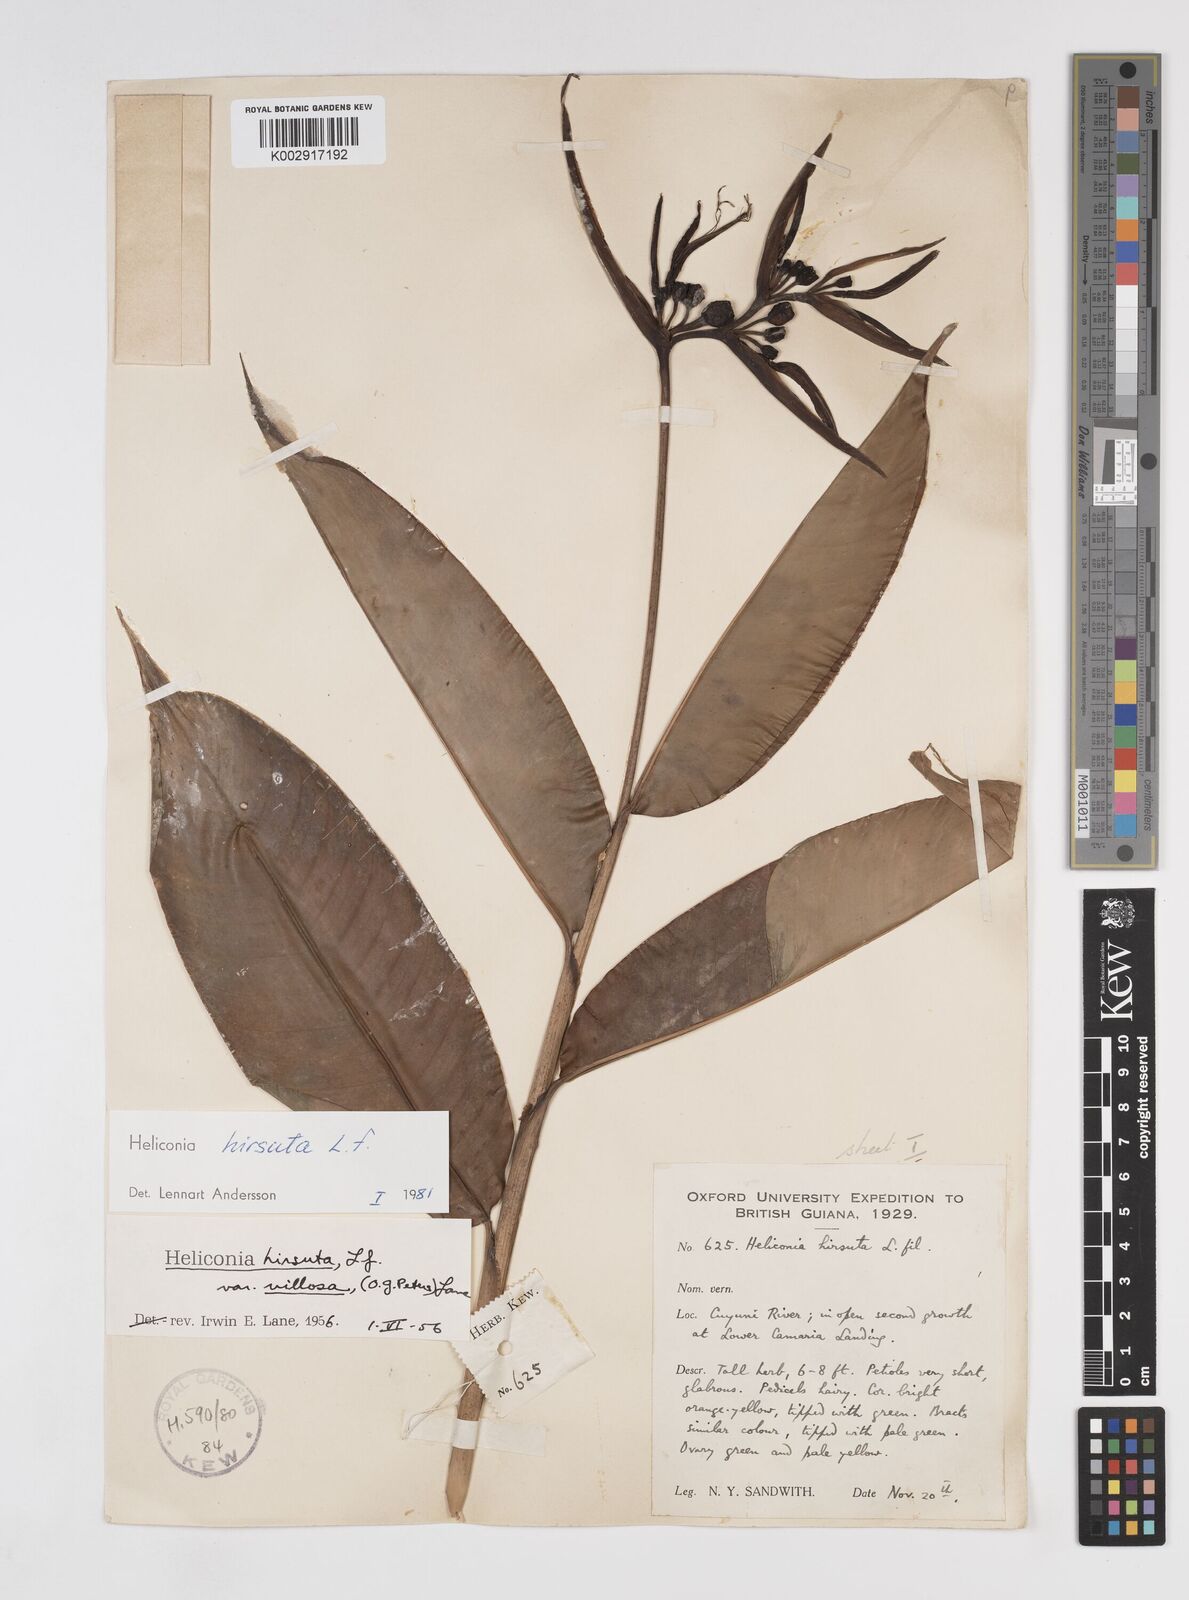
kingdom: Plantae
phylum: Tracheophyta
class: Liliopsida
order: Zingiberales
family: Heliconiaceae
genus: Heliconia
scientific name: Heliconia hirsuta
